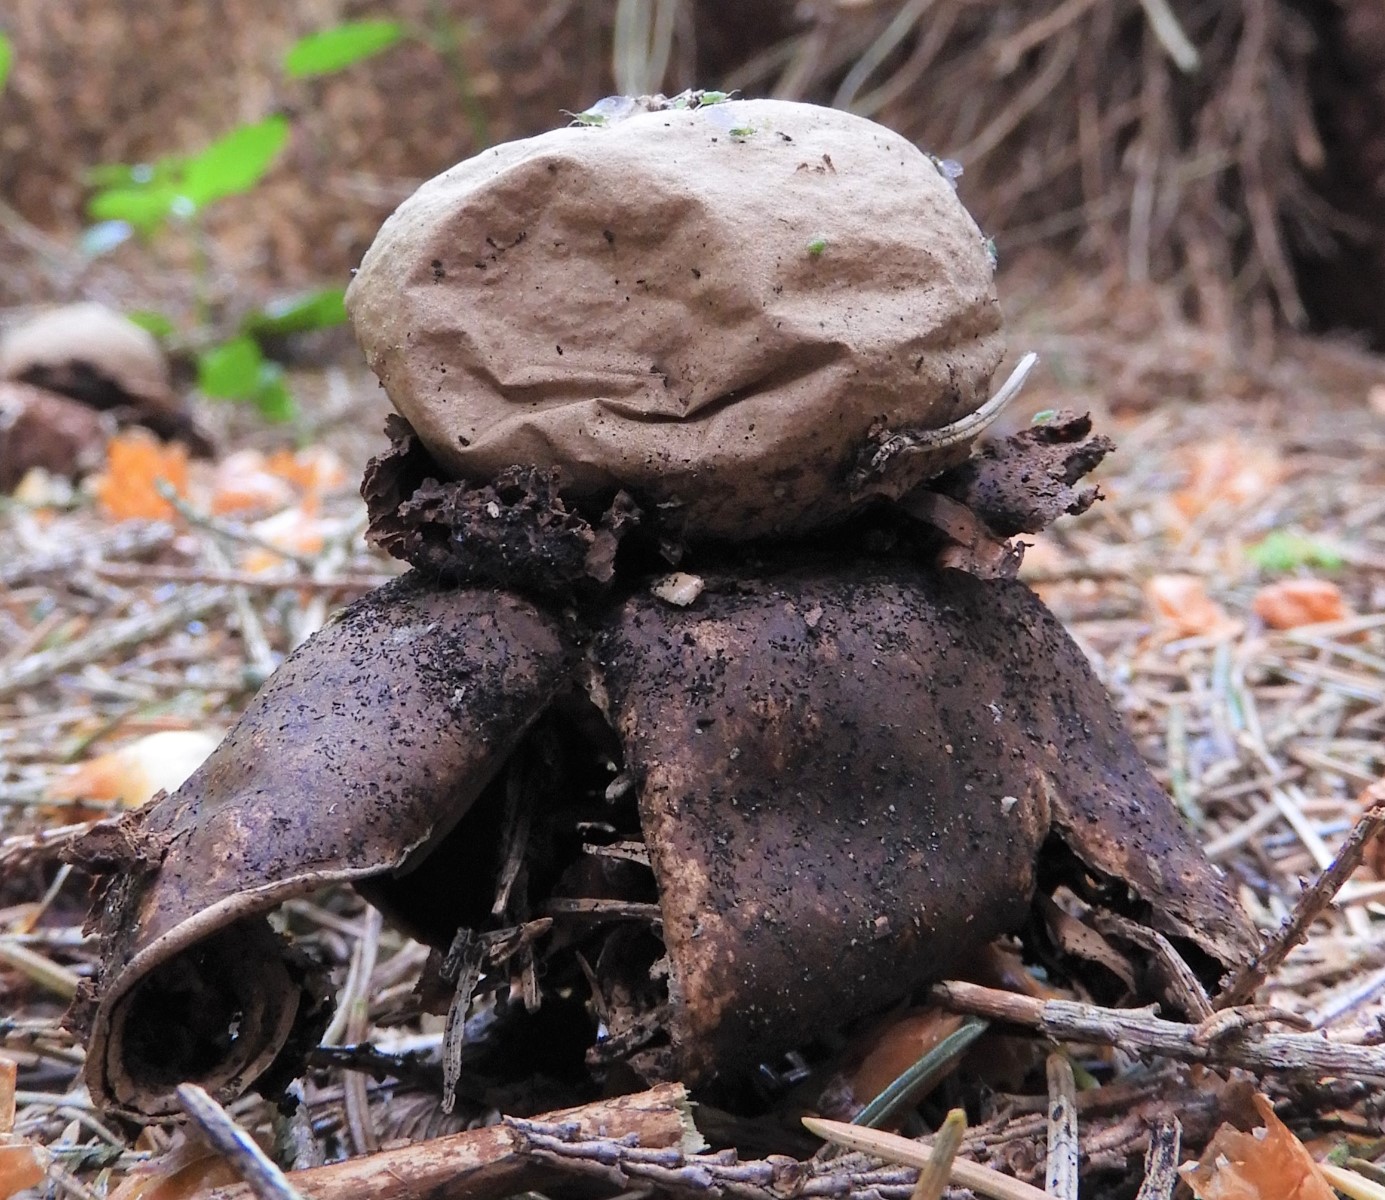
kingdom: Fungi
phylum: Basidiomycota
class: Agaricomycetes
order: Geastrales
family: Geastraceae
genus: Geastrum
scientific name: Geastrum michelianum
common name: kødet stjernebold
